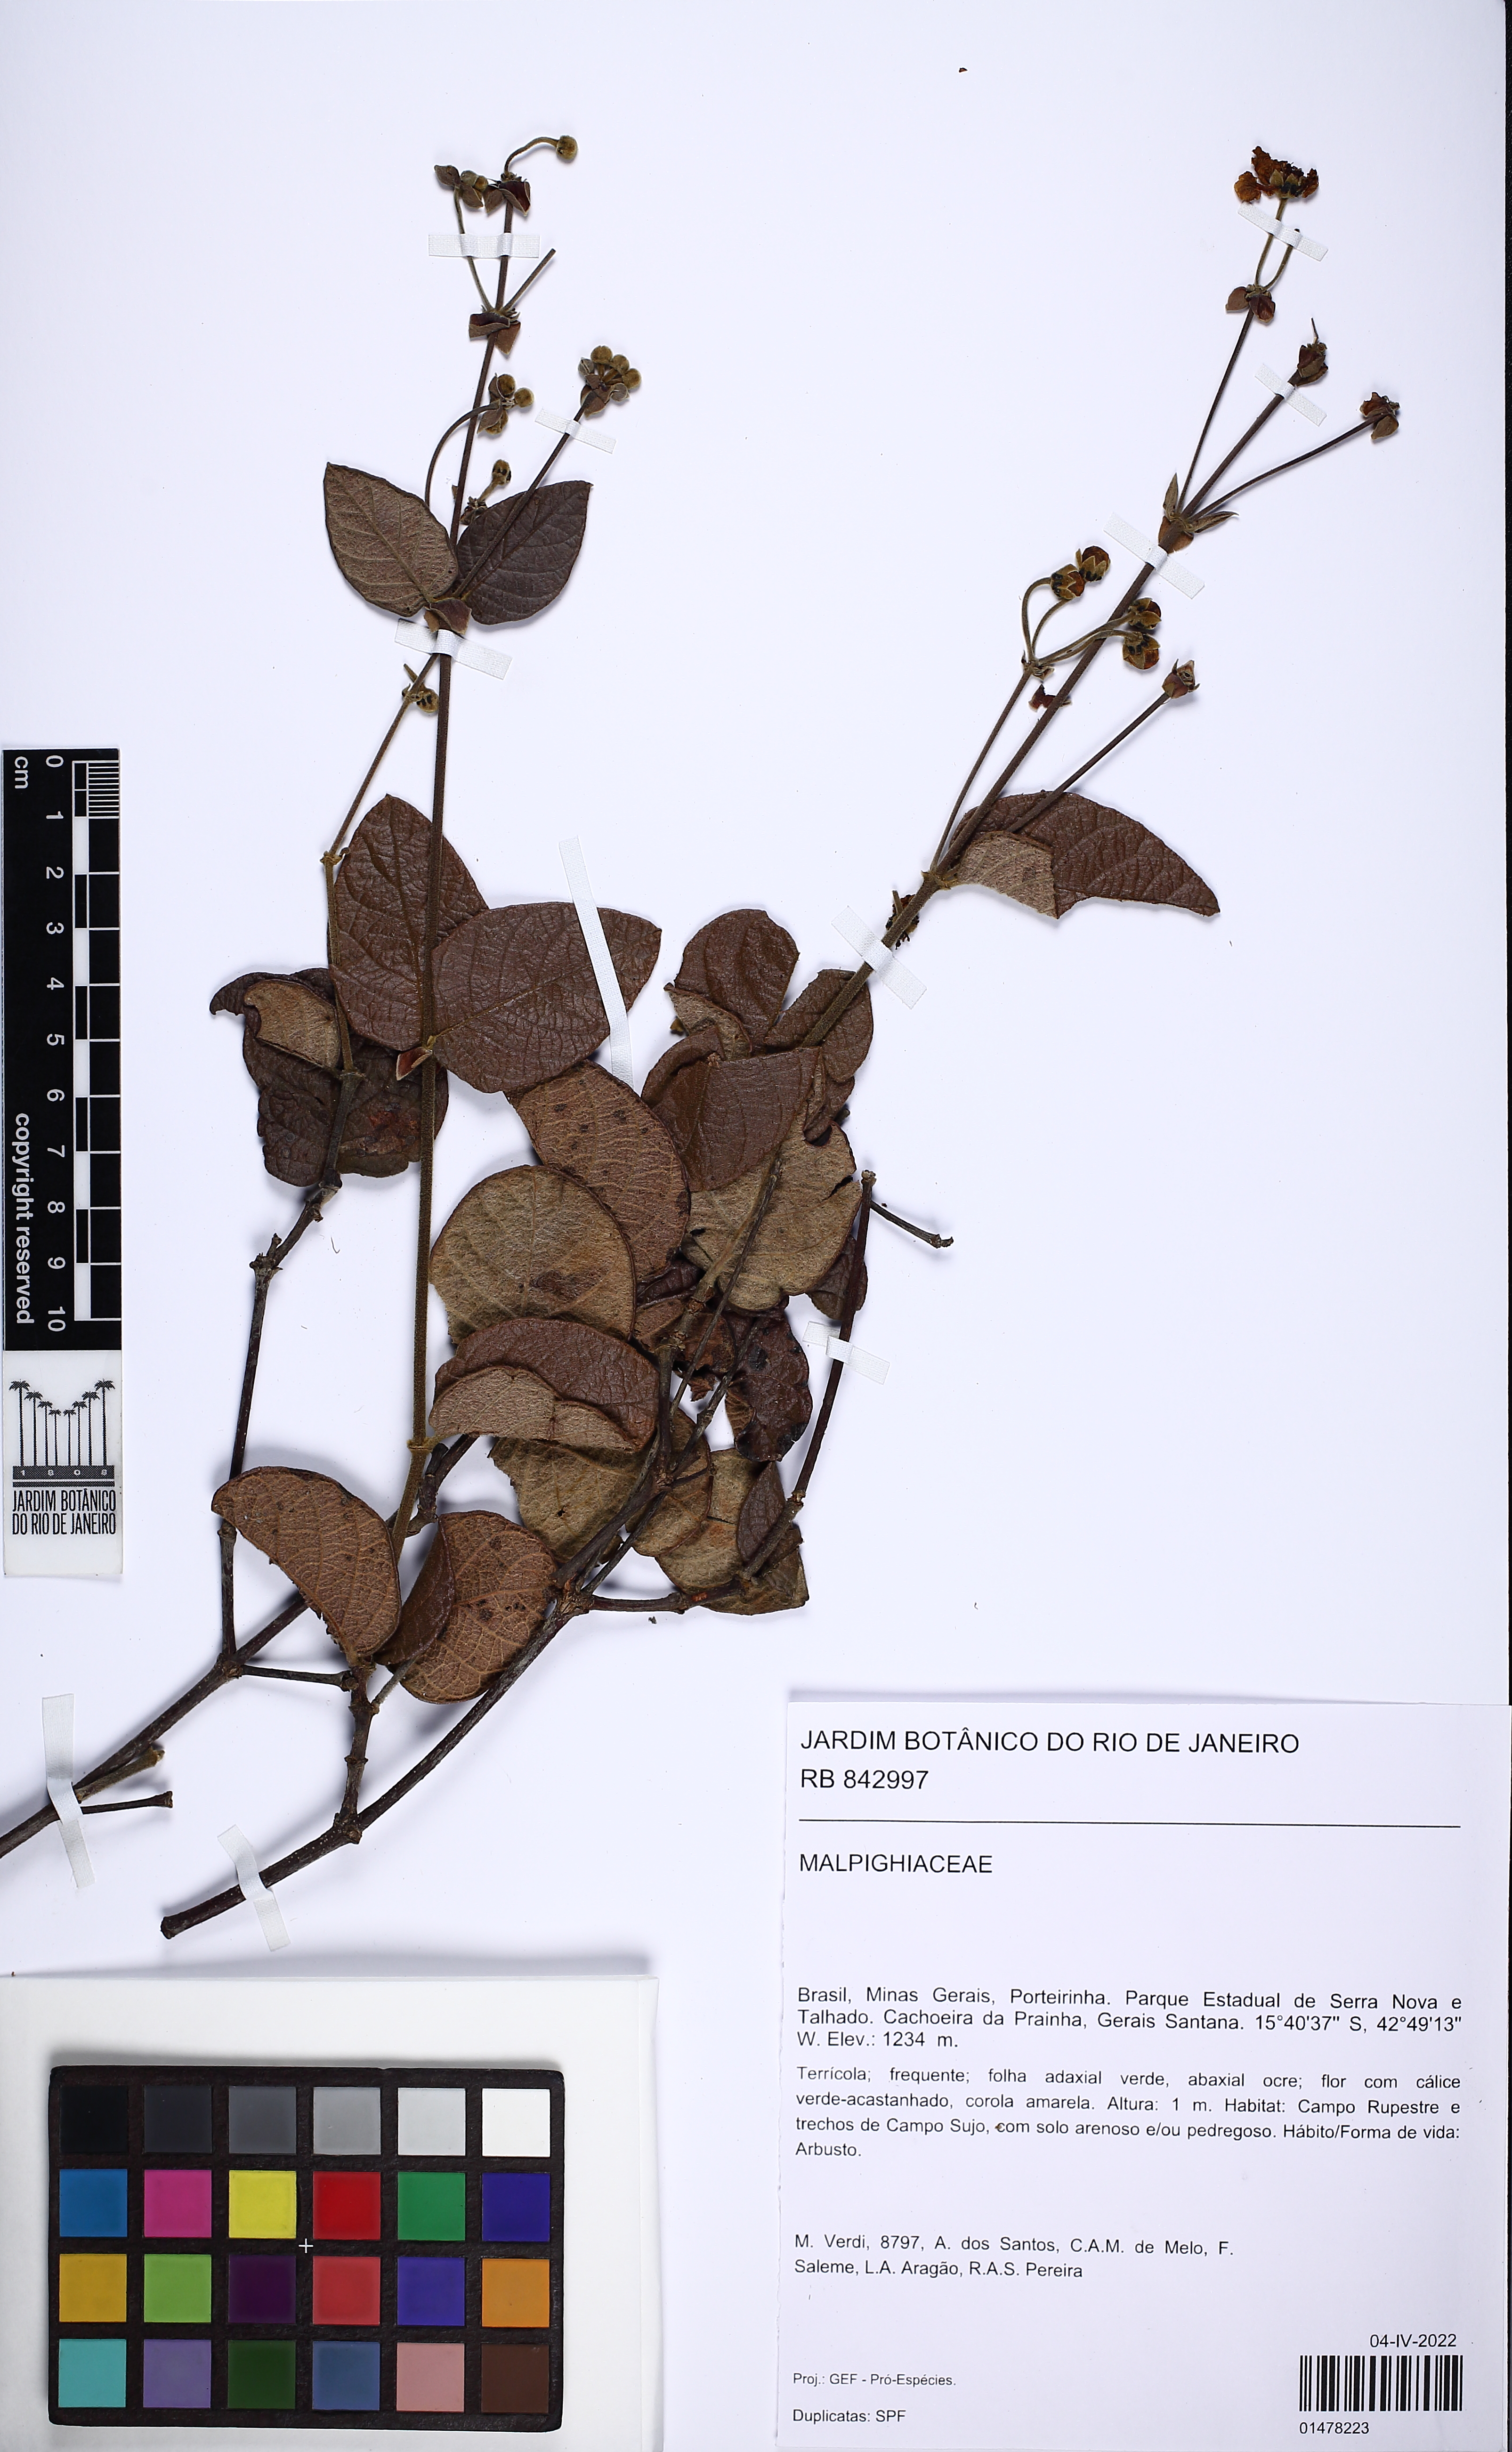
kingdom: Plantae
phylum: Tracheophyta
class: Magnoliopsida
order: Malpighiales
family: Malpighiaceae
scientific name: Malpighiaceae
